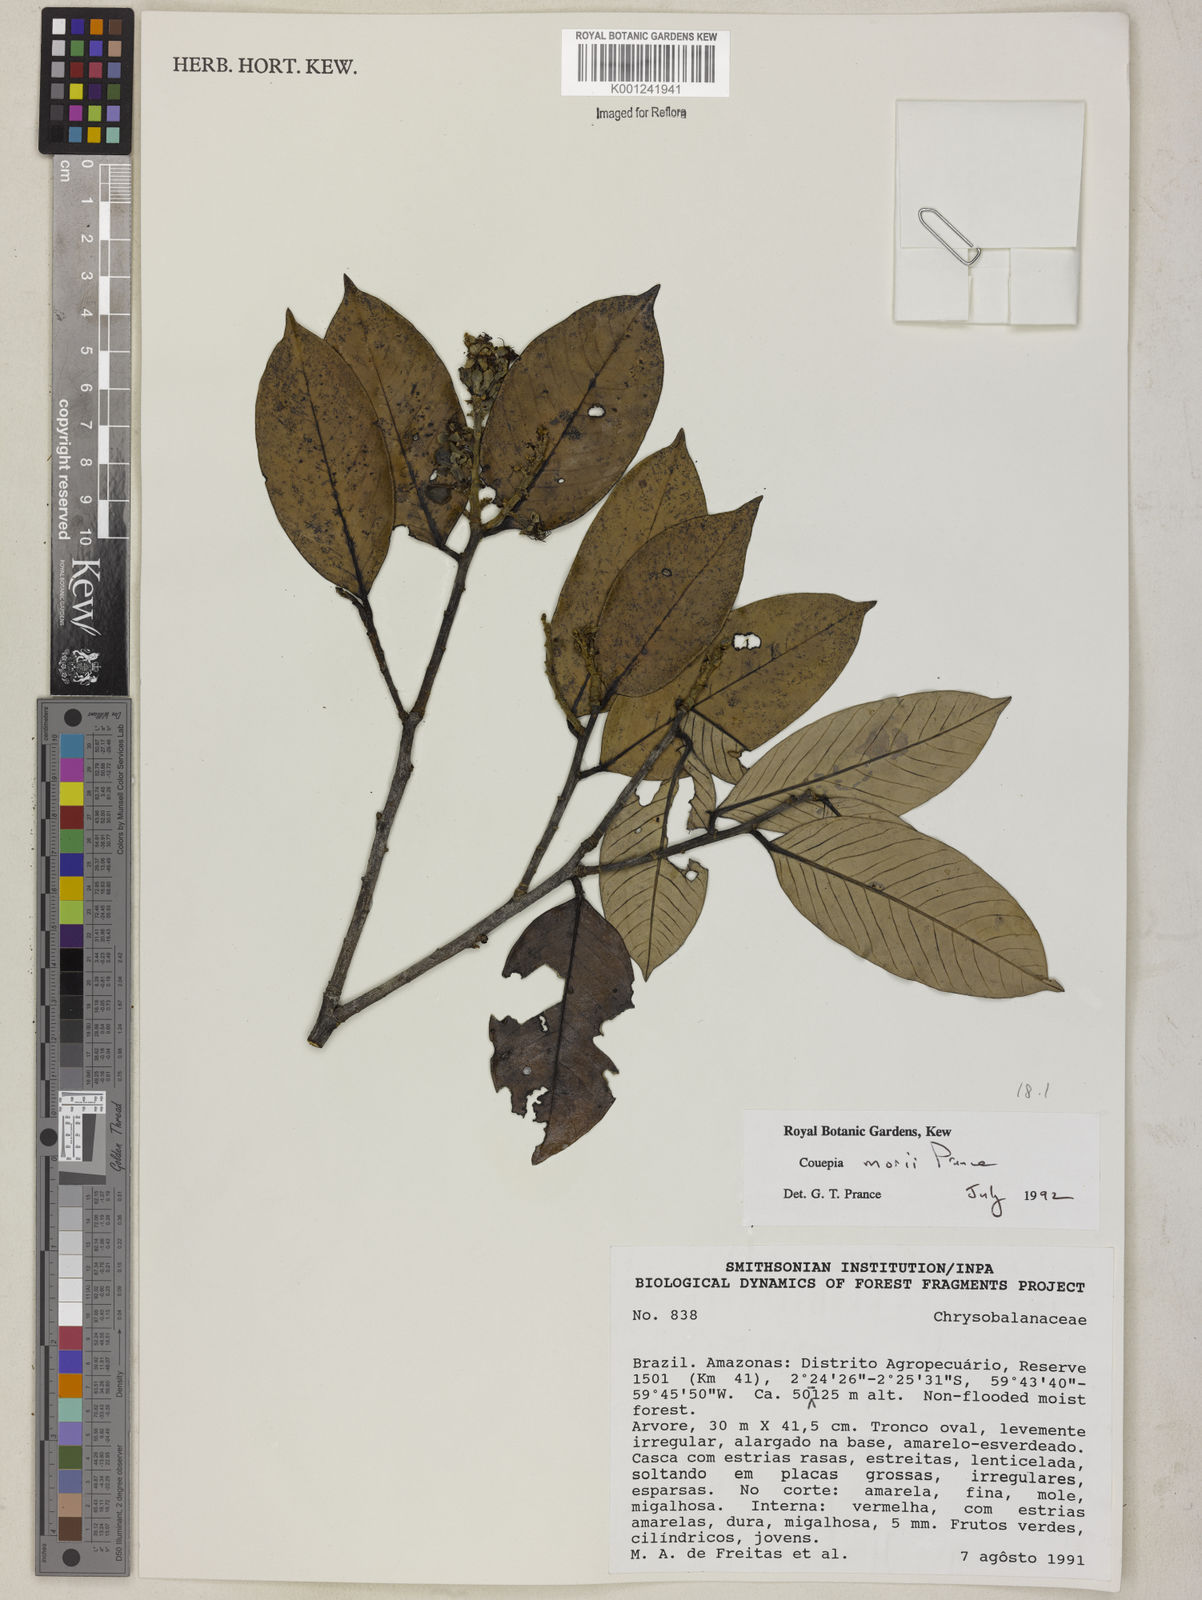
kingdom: Plantae
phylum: Tracheophyta
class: Magnoliopsida
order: Malpighiales
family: Chrysobalanaceae
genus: Couepia
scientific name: Couepia morii
